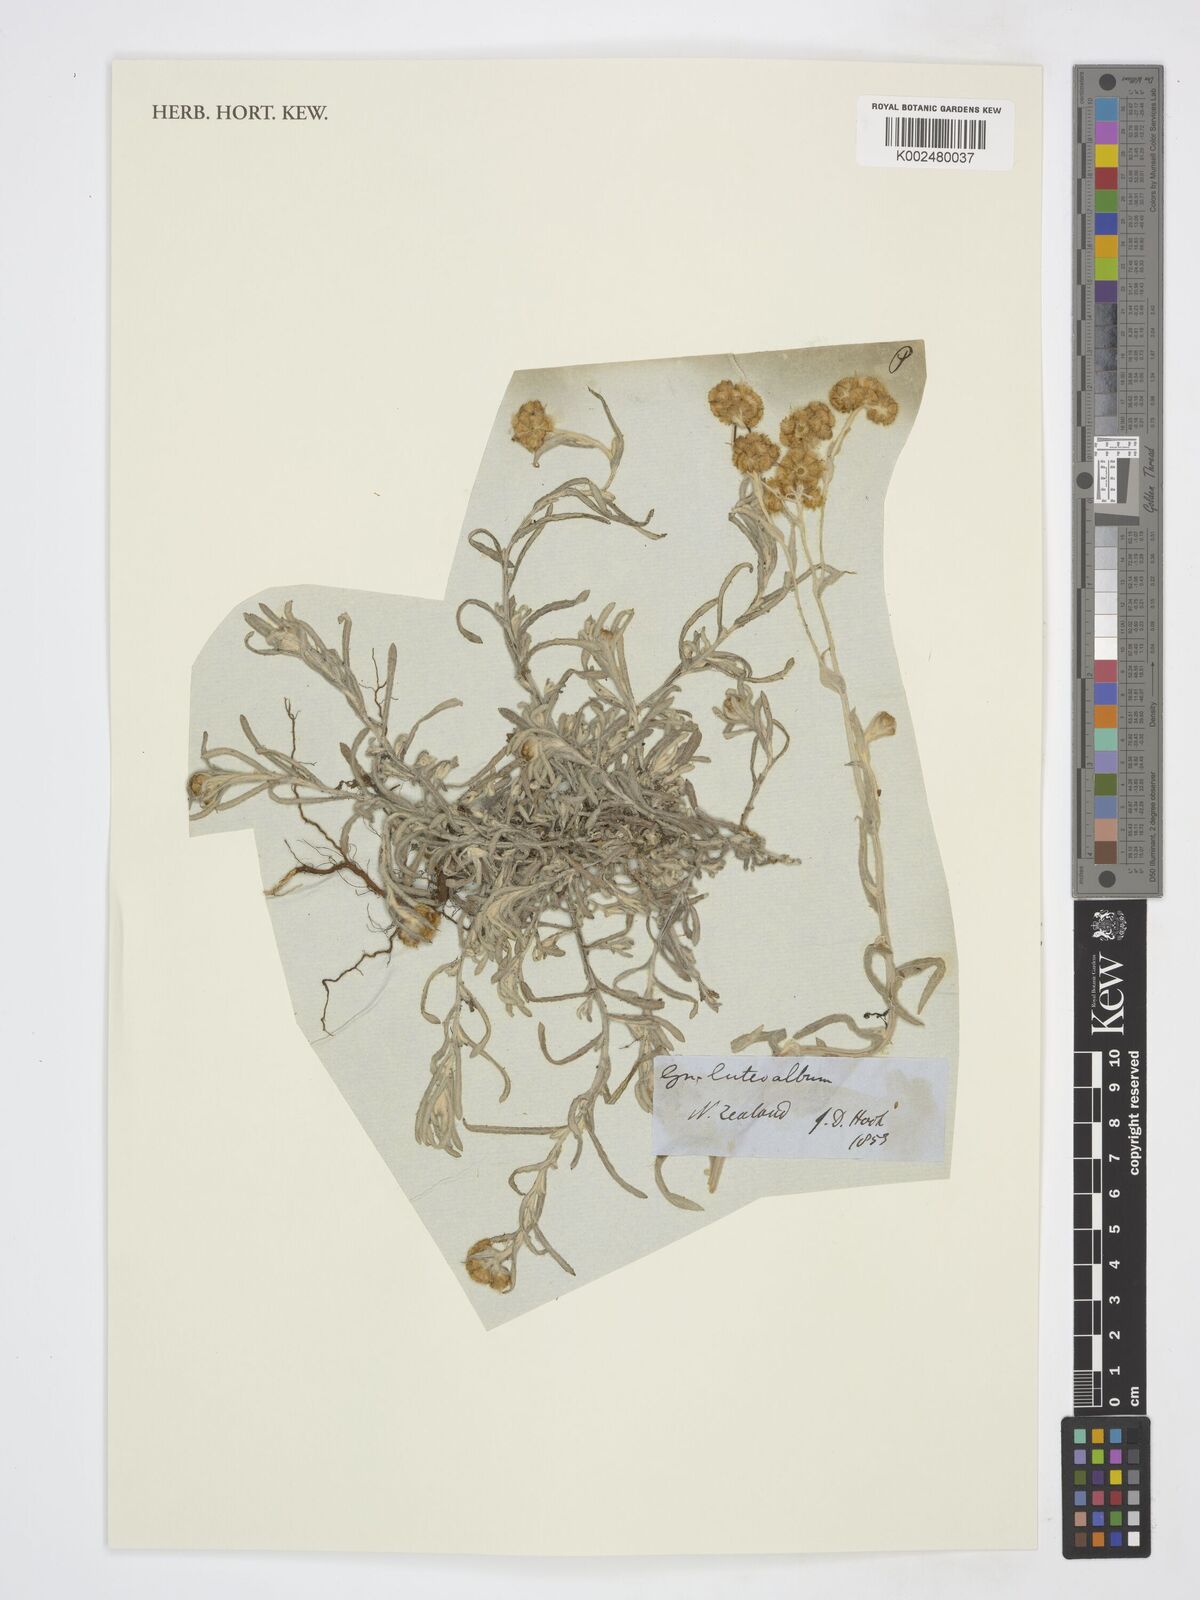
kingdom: Plantae
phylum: Tracheophyta
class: Magnoliopsida
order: Asterales
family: Asteraceae
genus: Helichrysum
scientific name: Helichrysum luteoalbum
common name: Daisy
